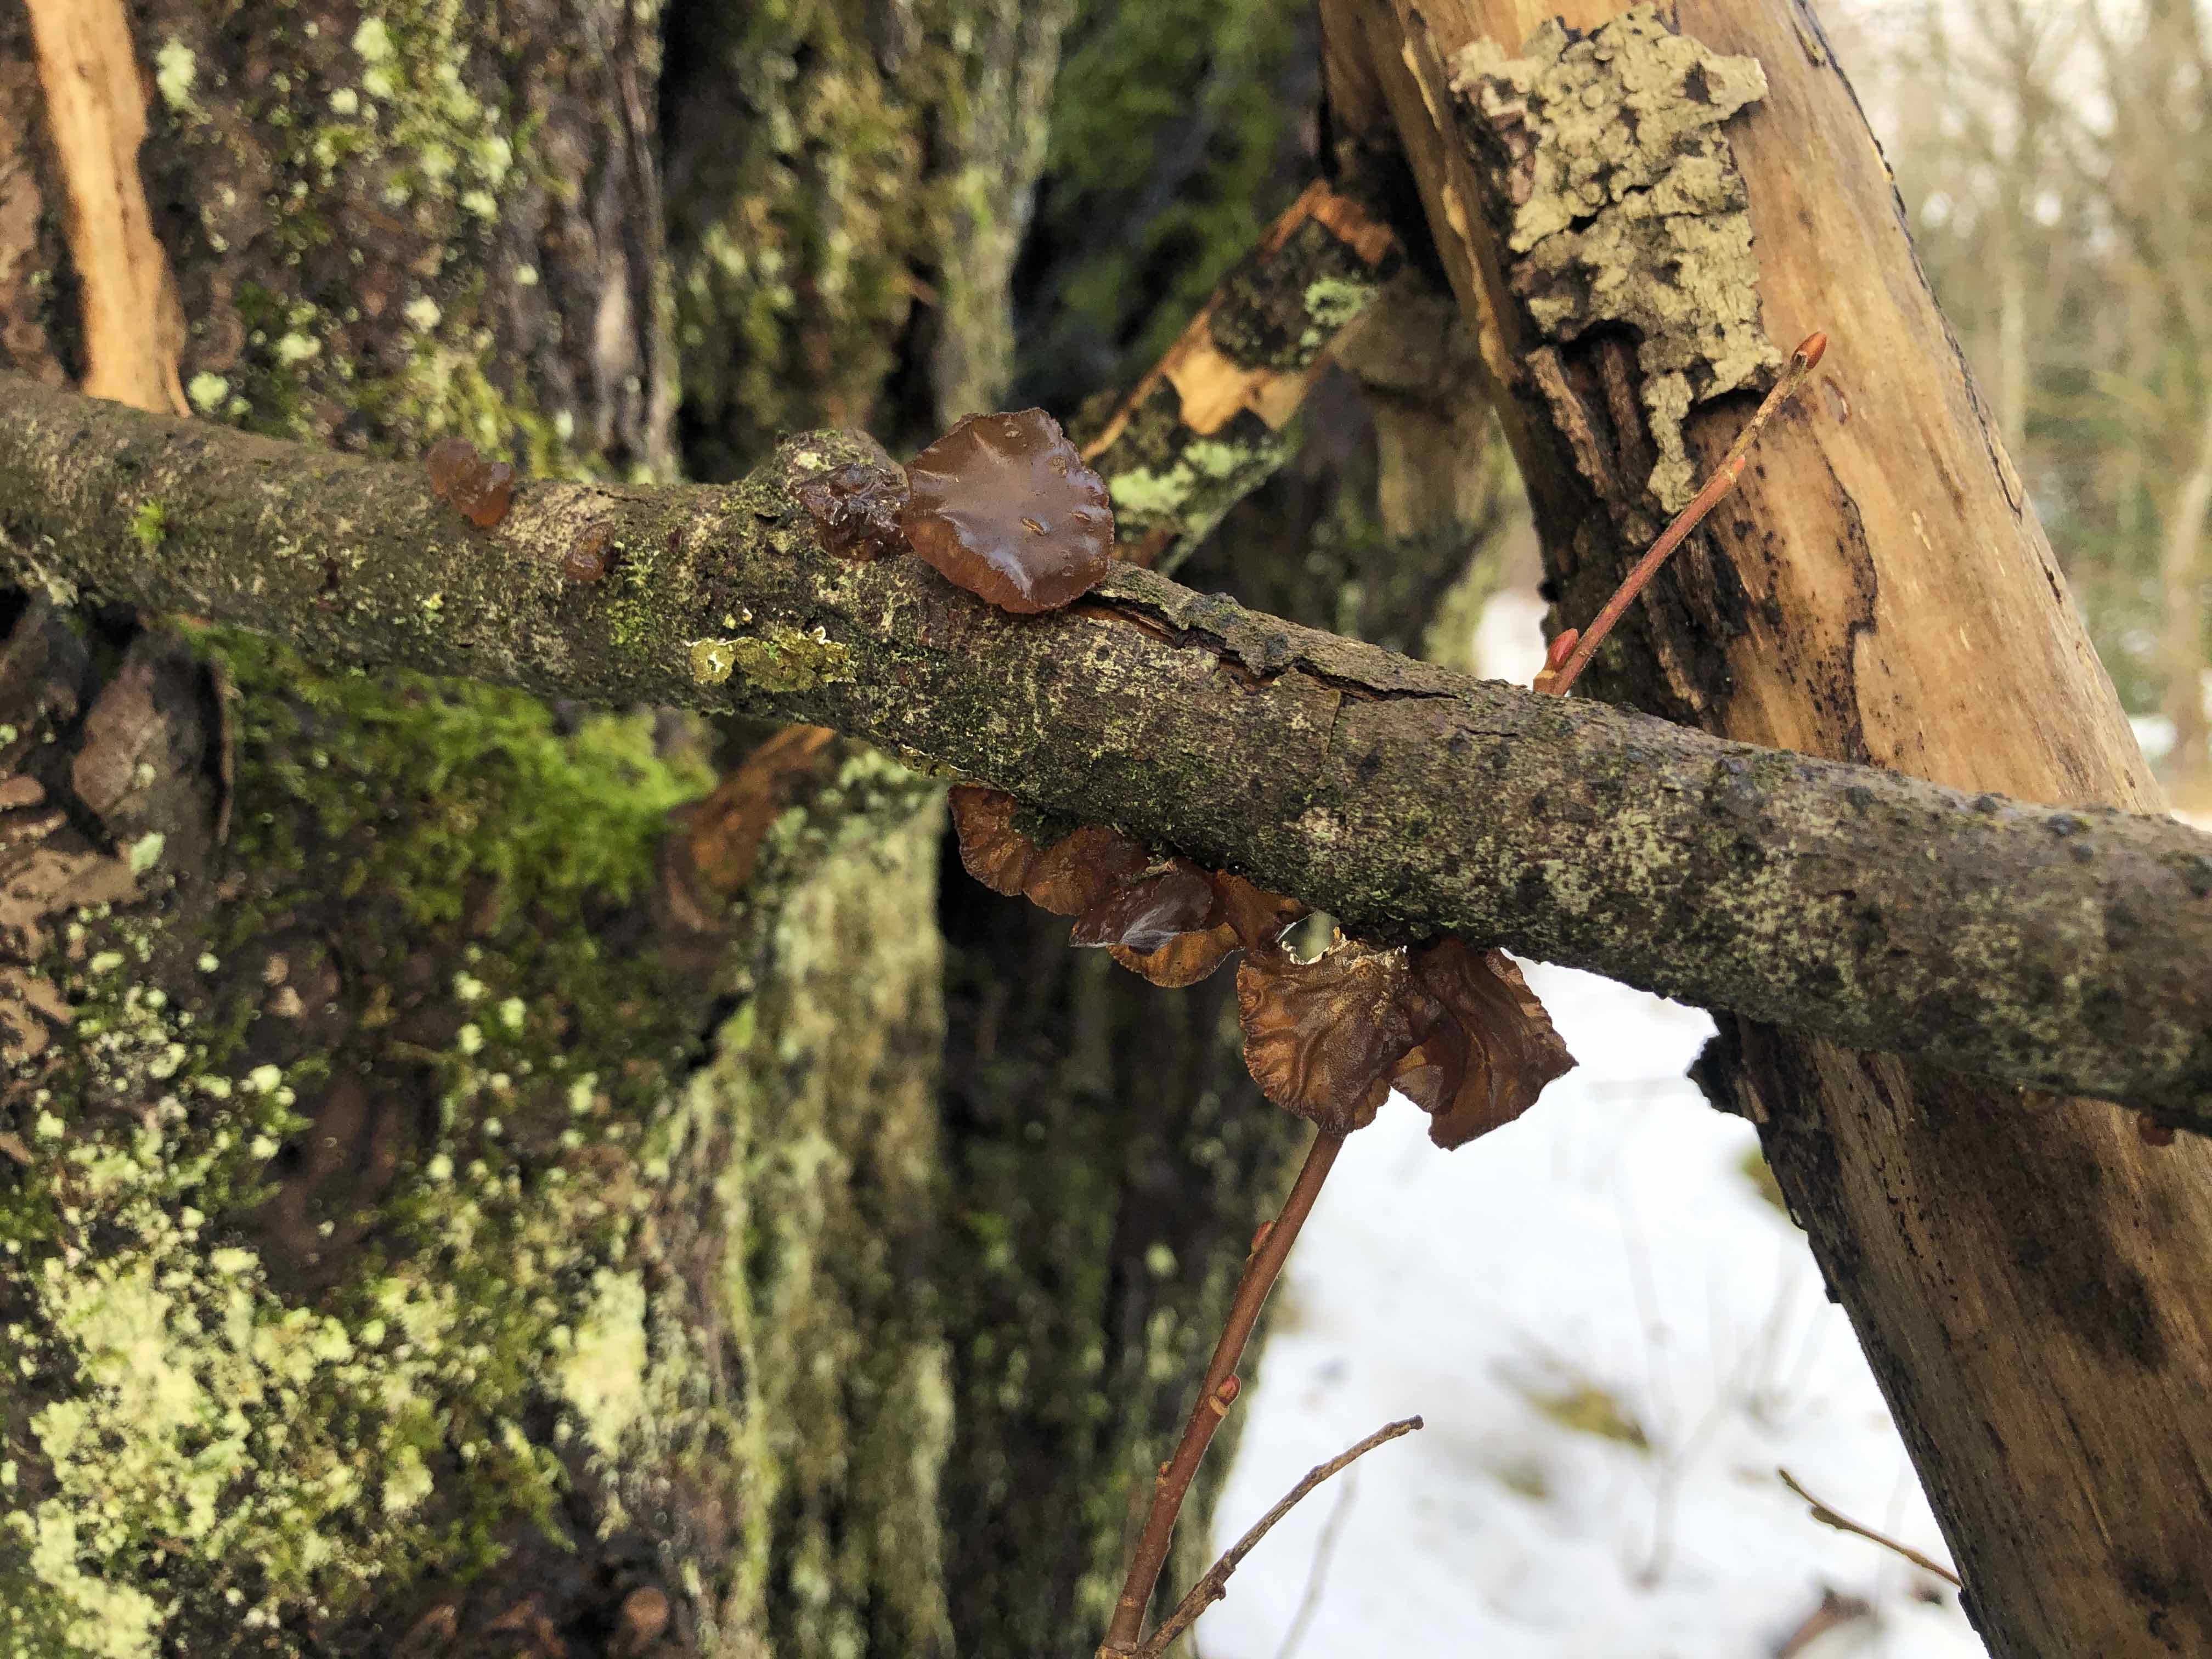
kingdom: Fungi
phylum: Basidiomycota
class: Agaricomycetes
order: Auriculariales
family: Auriculariaceae
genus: Exidia
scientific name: Exidia recisa
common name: pile-bævretop
